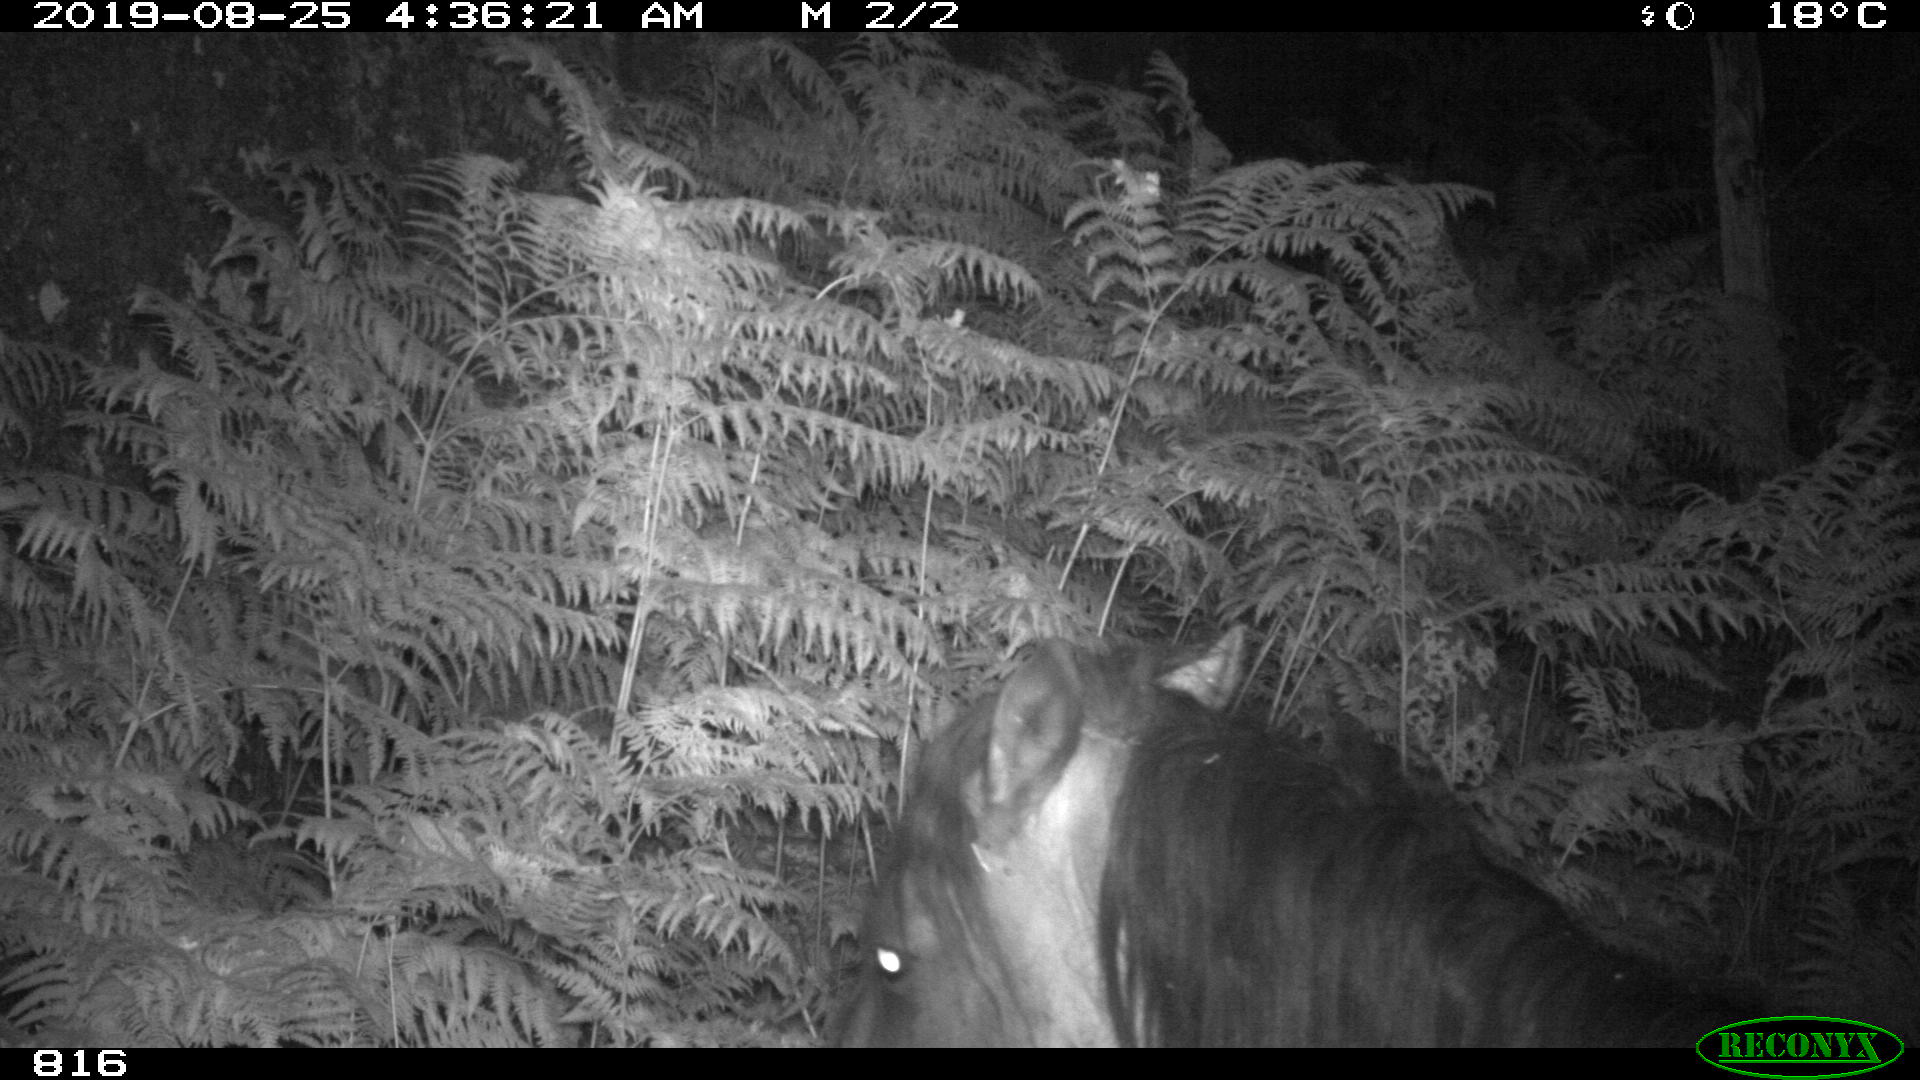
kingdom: Animalia
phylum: Chordata
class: Mammalia
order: Perissodactyla
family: Equidae
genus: Equus
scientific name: Equus caballus
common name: Horse
